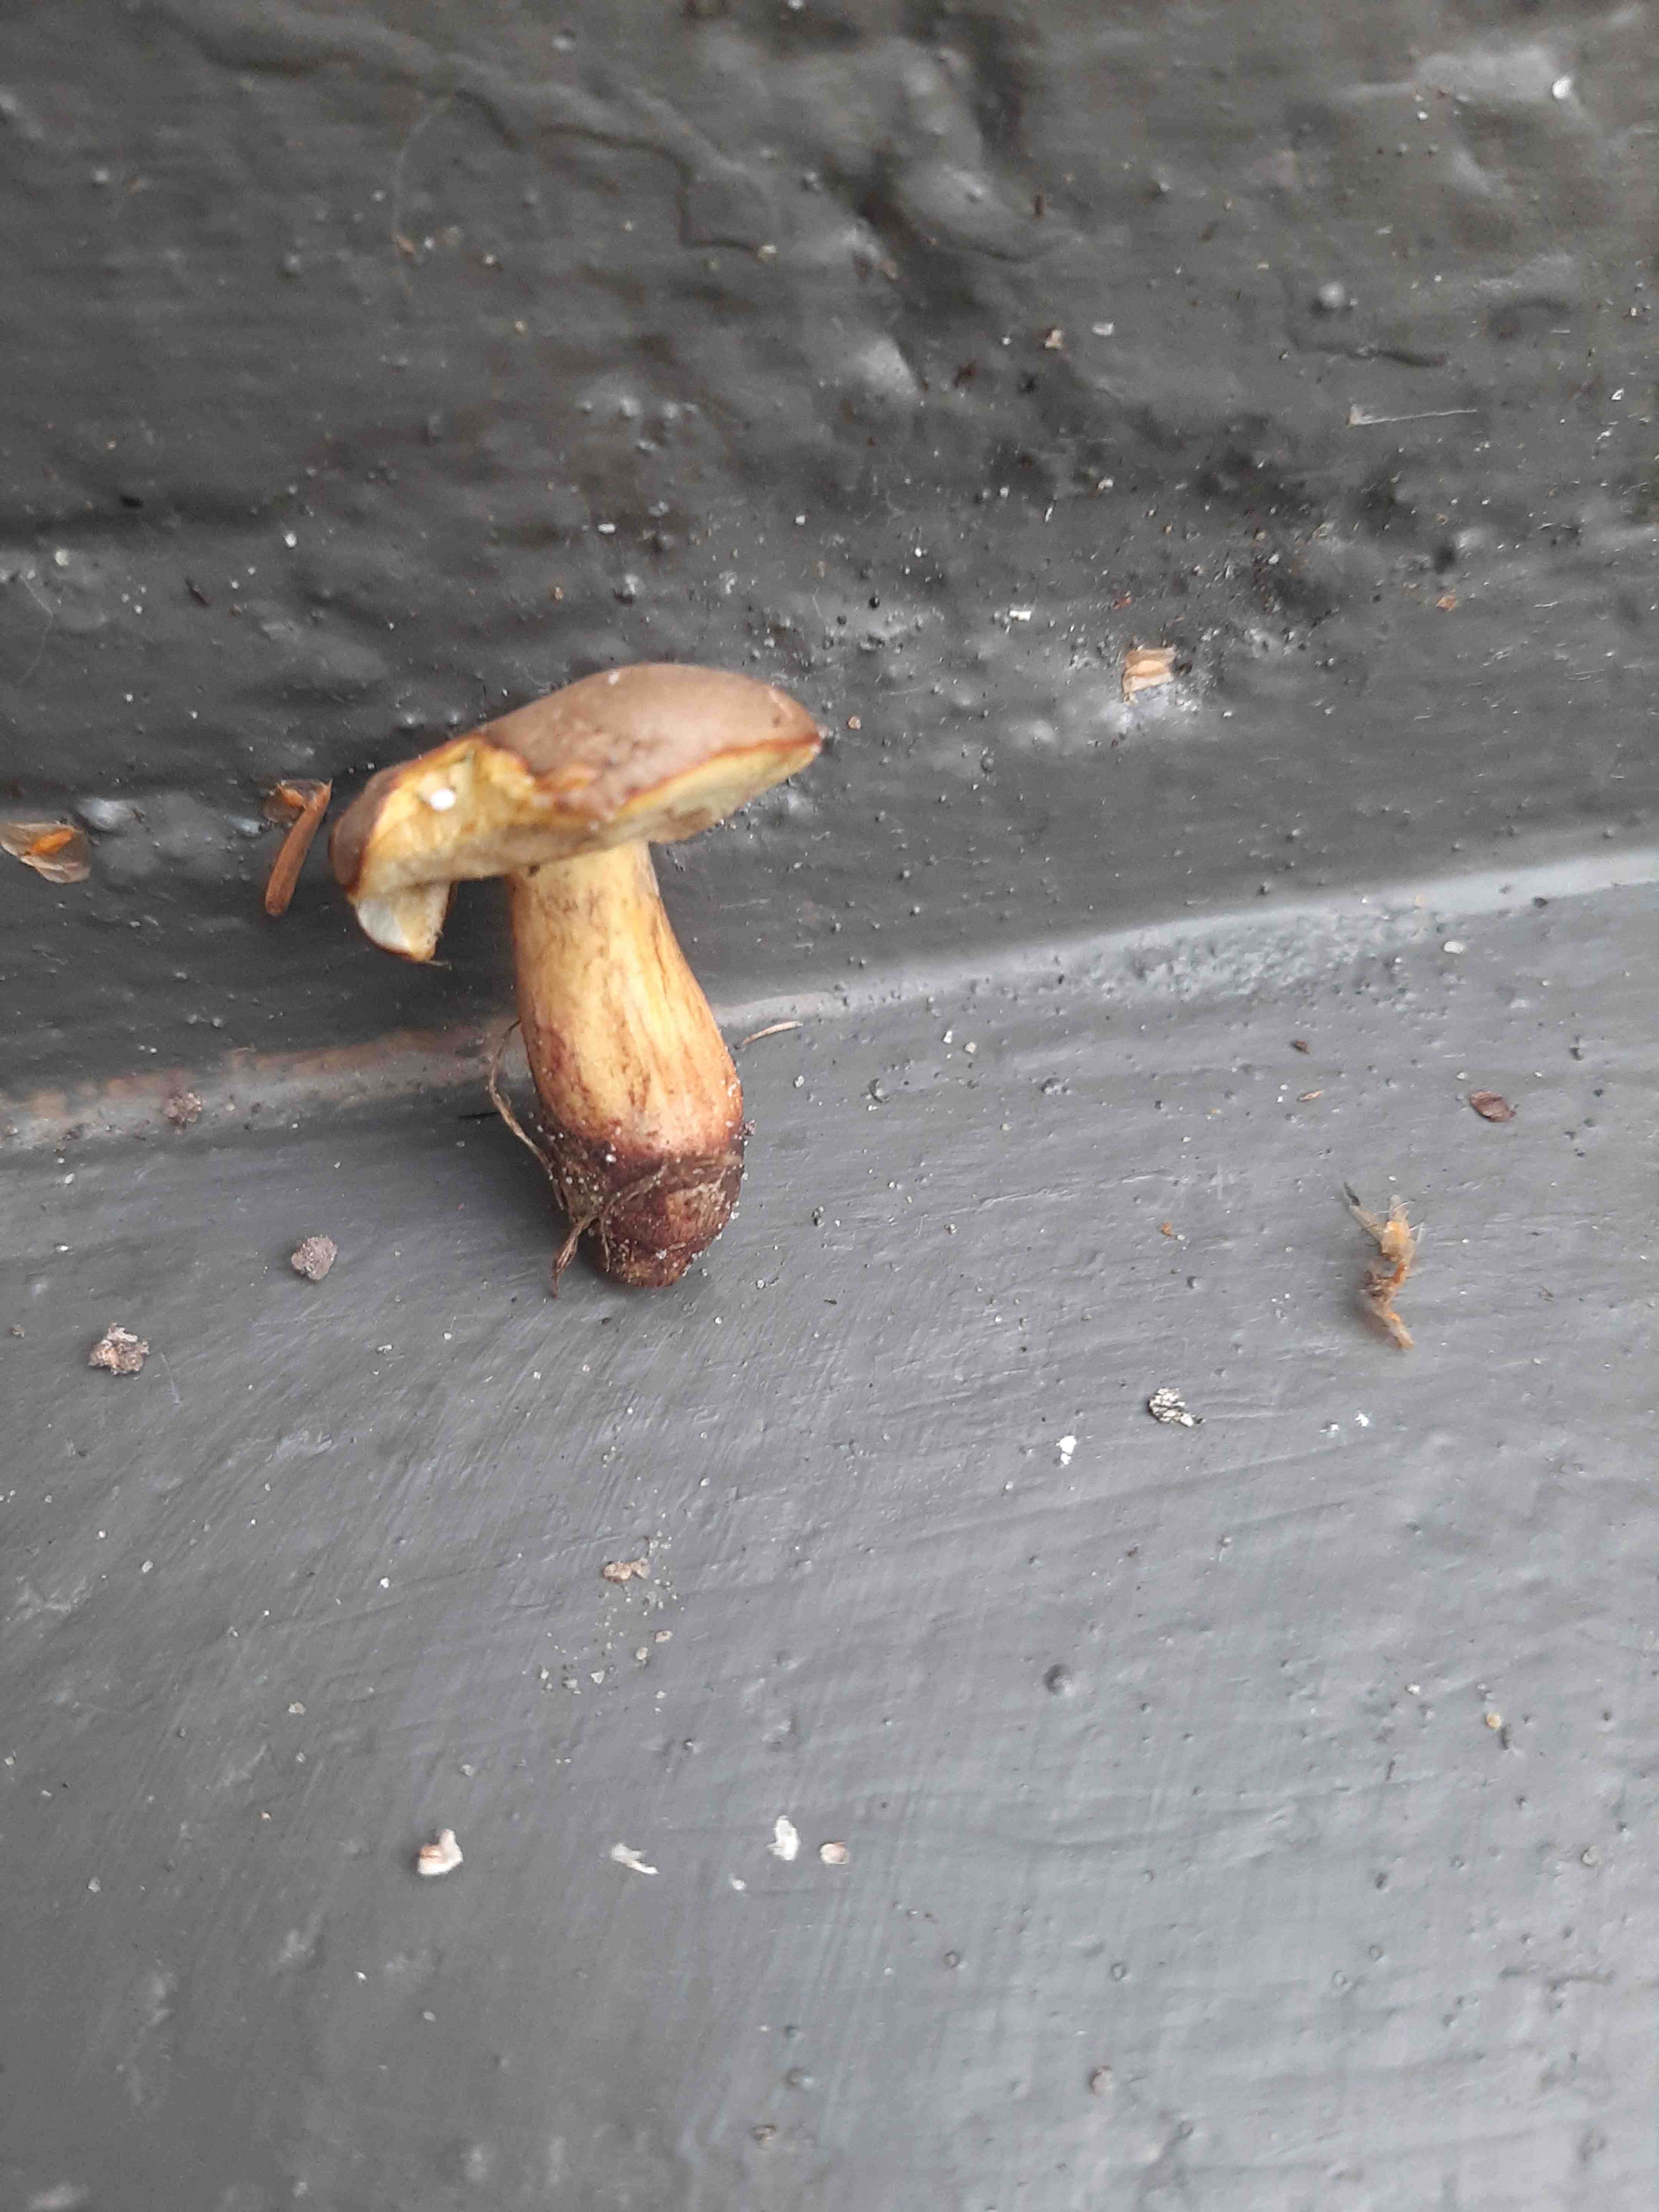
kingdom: Fungi
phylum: Basidiomycota
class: Agaricomycetes
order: Boletales
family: Boletaceae
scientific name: Boletaceae
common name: rørhatfamilien
